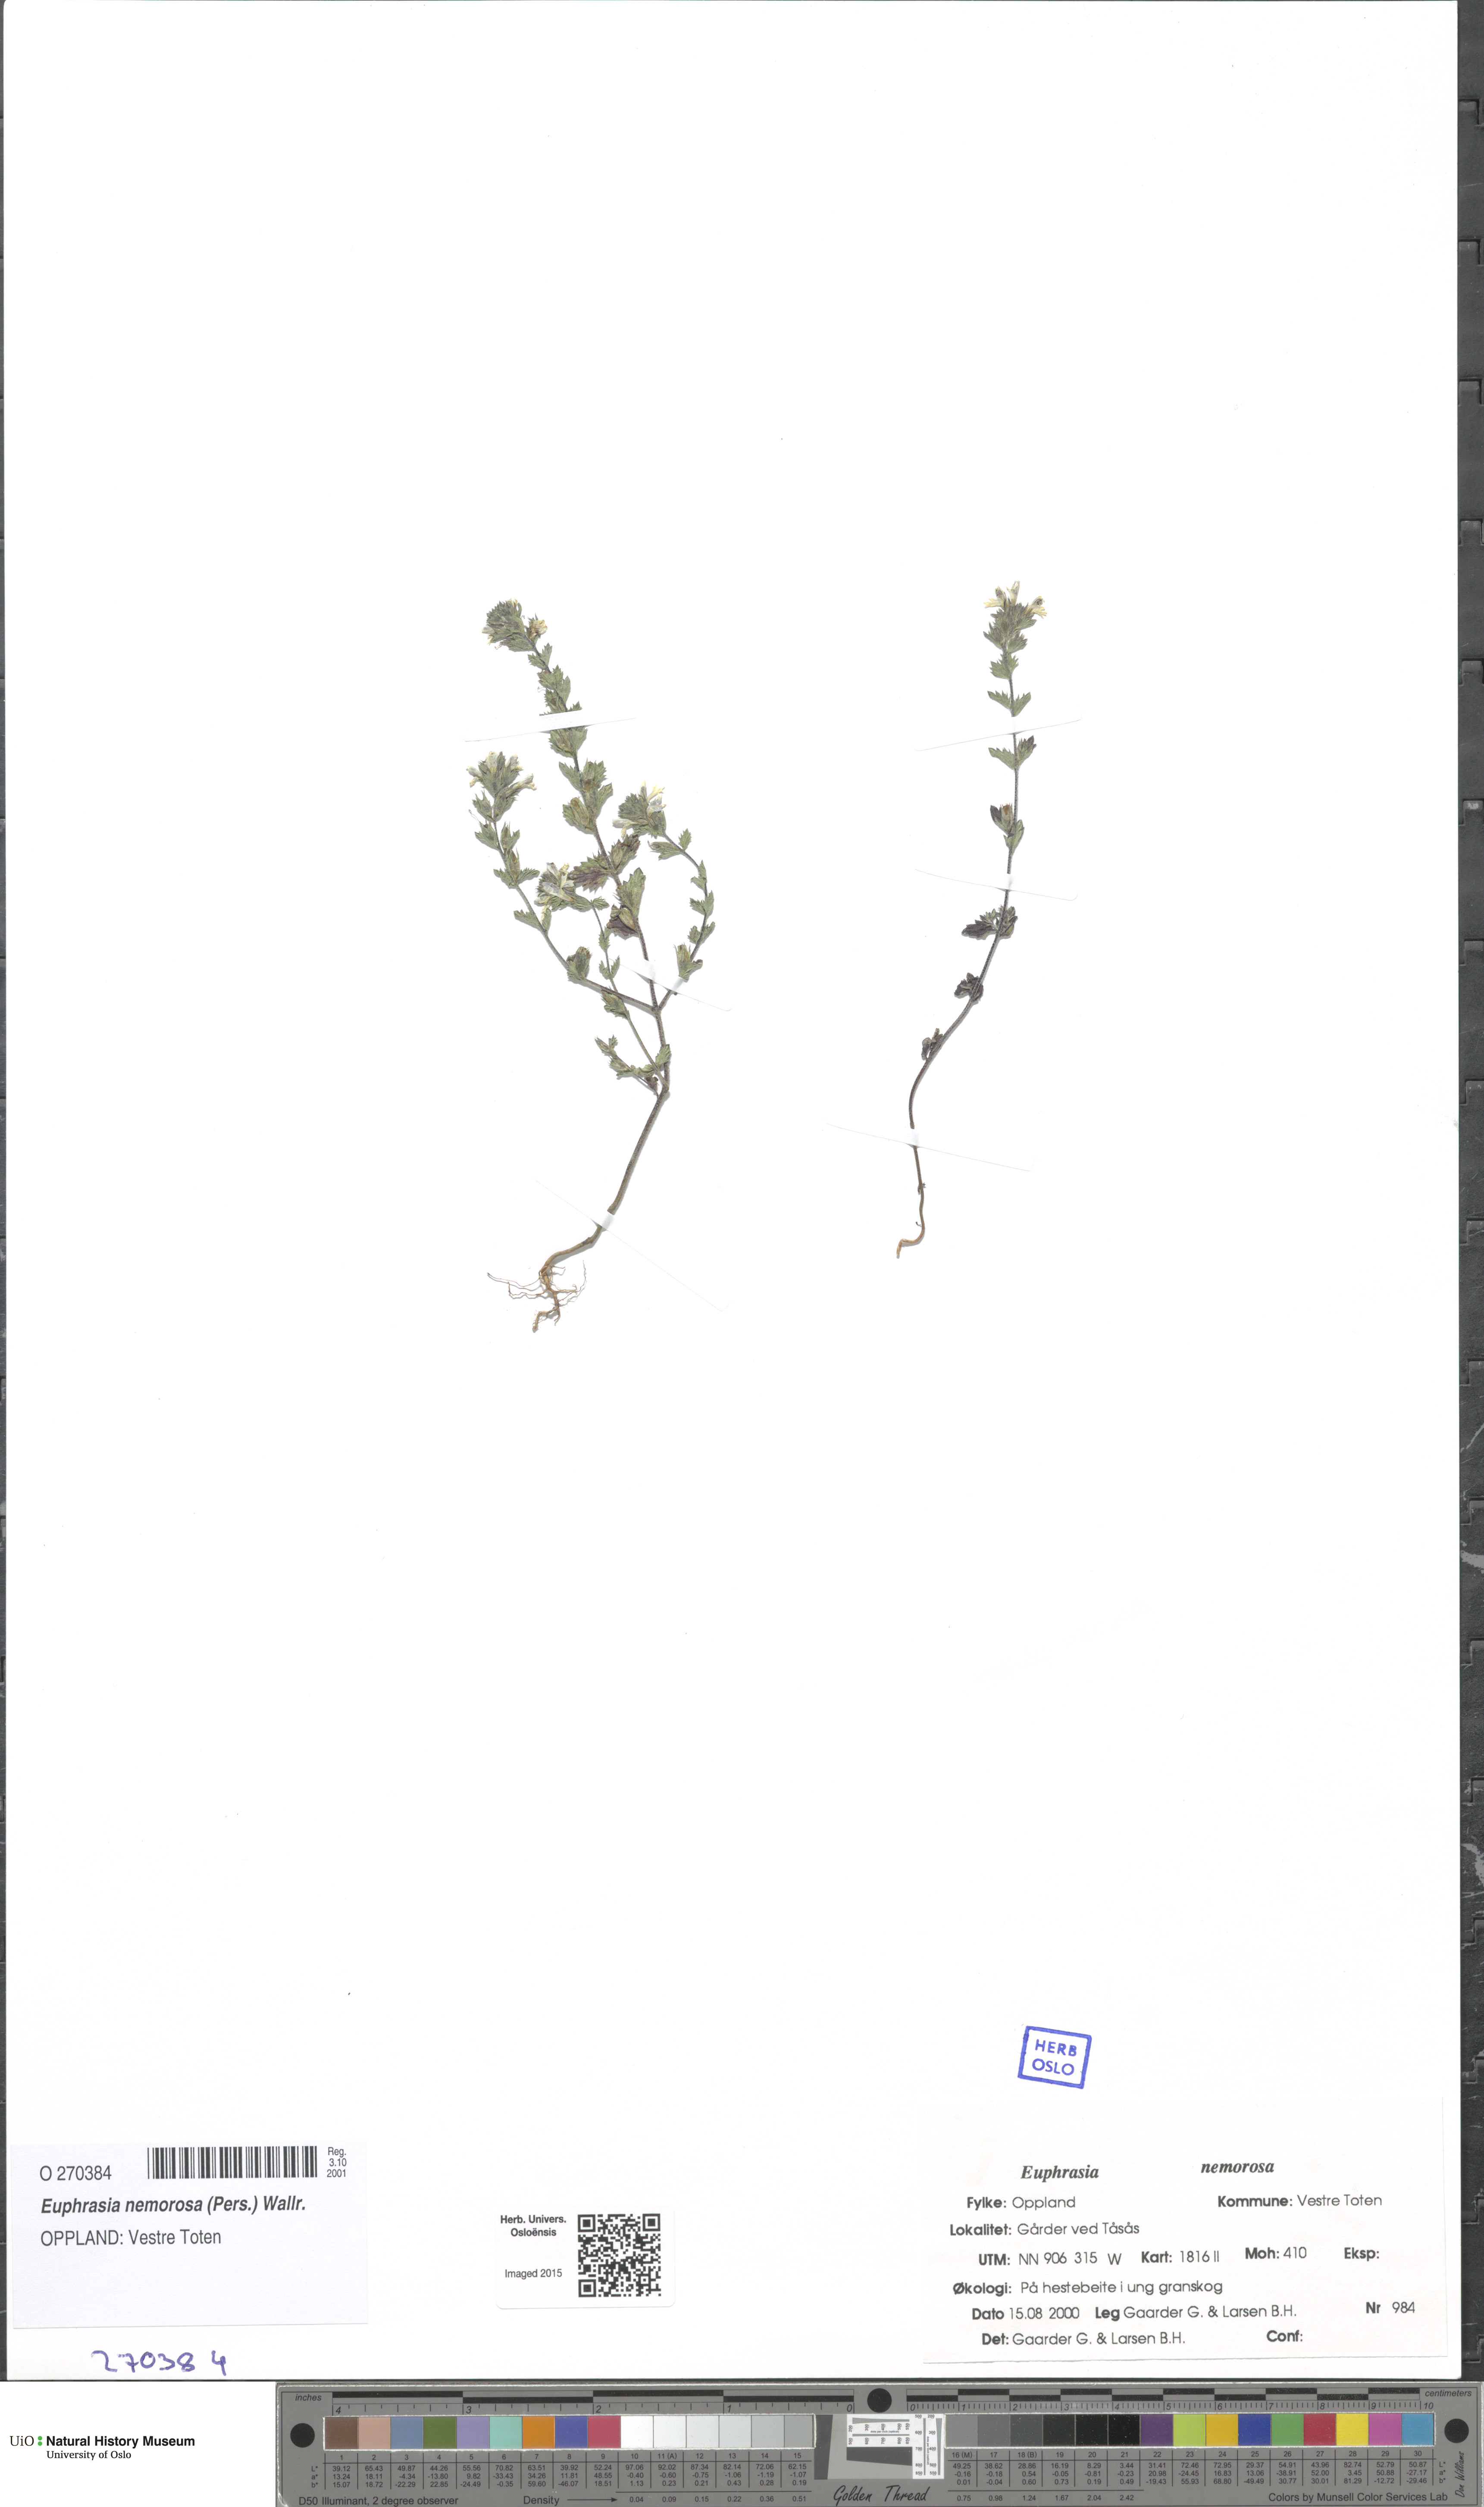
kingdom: Plantae
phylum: Tracheophyta
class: Magnoliopsida
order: Lamiales
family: Orobanchaceae
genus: Euphrasia
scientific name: Euphrasia nemorosa
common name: Common eyebright
